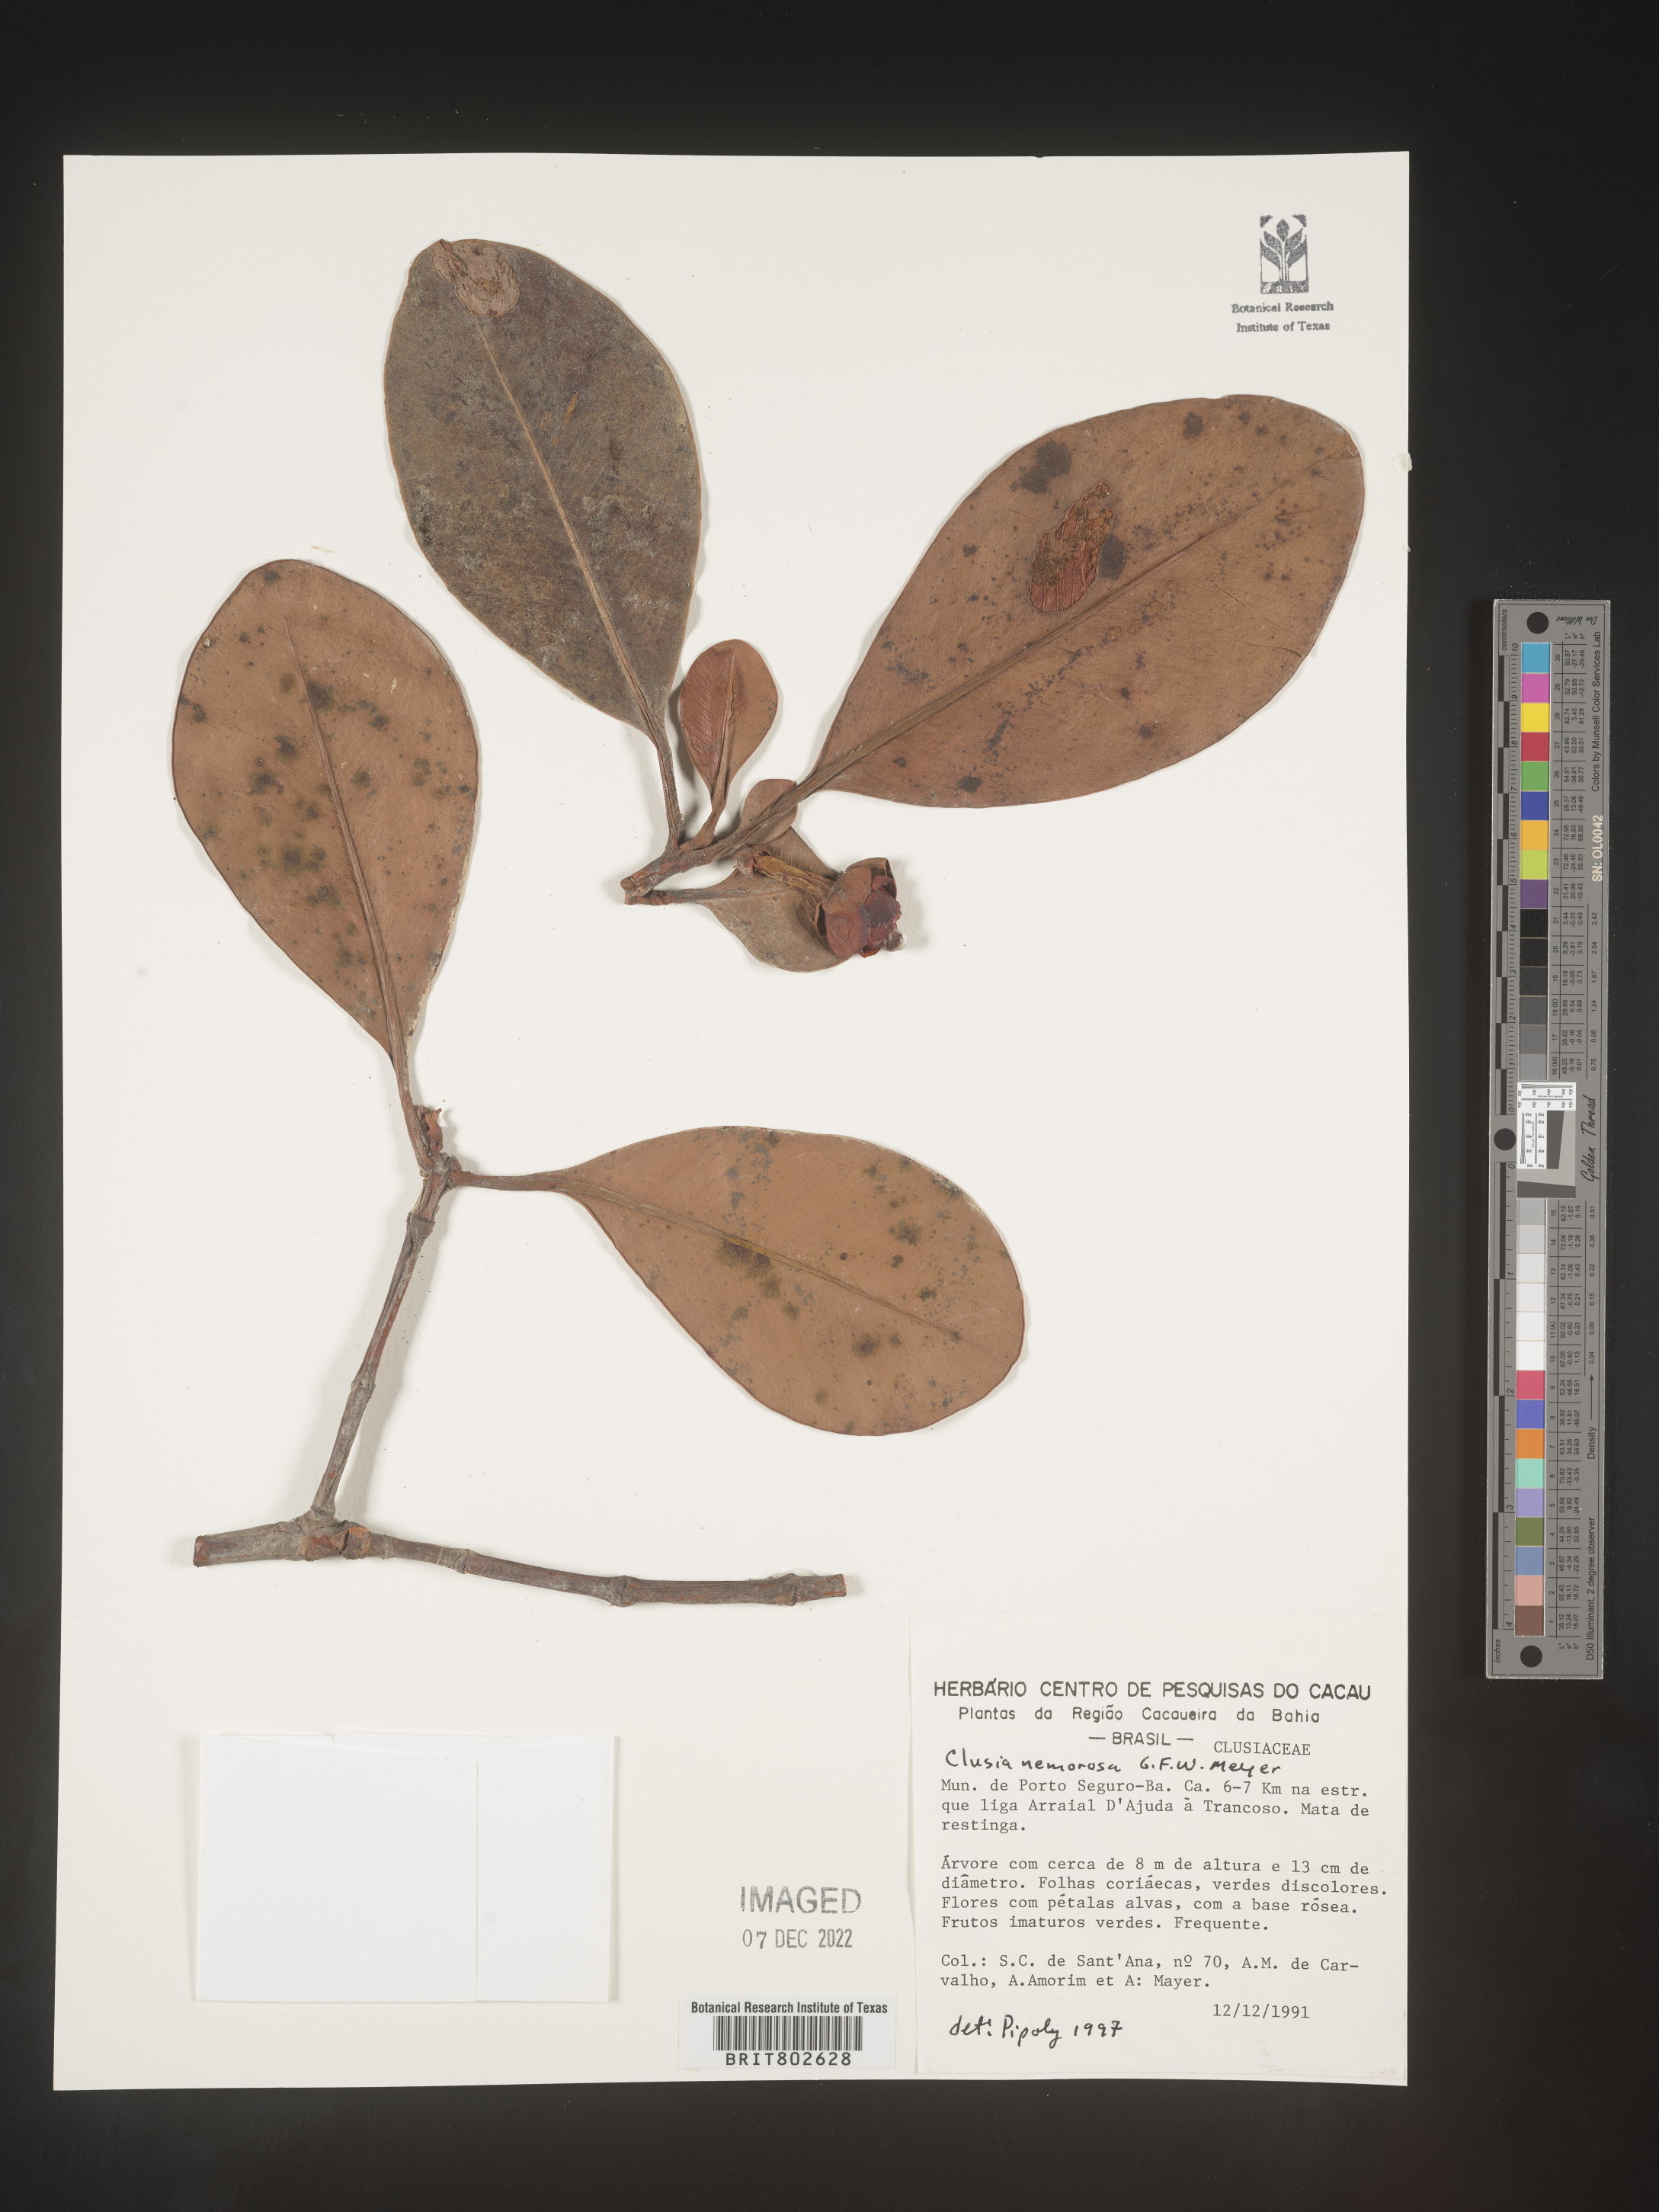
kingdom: Plantae
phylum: Tracheophyta
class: Magnoliopsida
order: Malpighiales
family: Clusiaceae
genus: Clusia
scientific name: Clusia nemorosa
